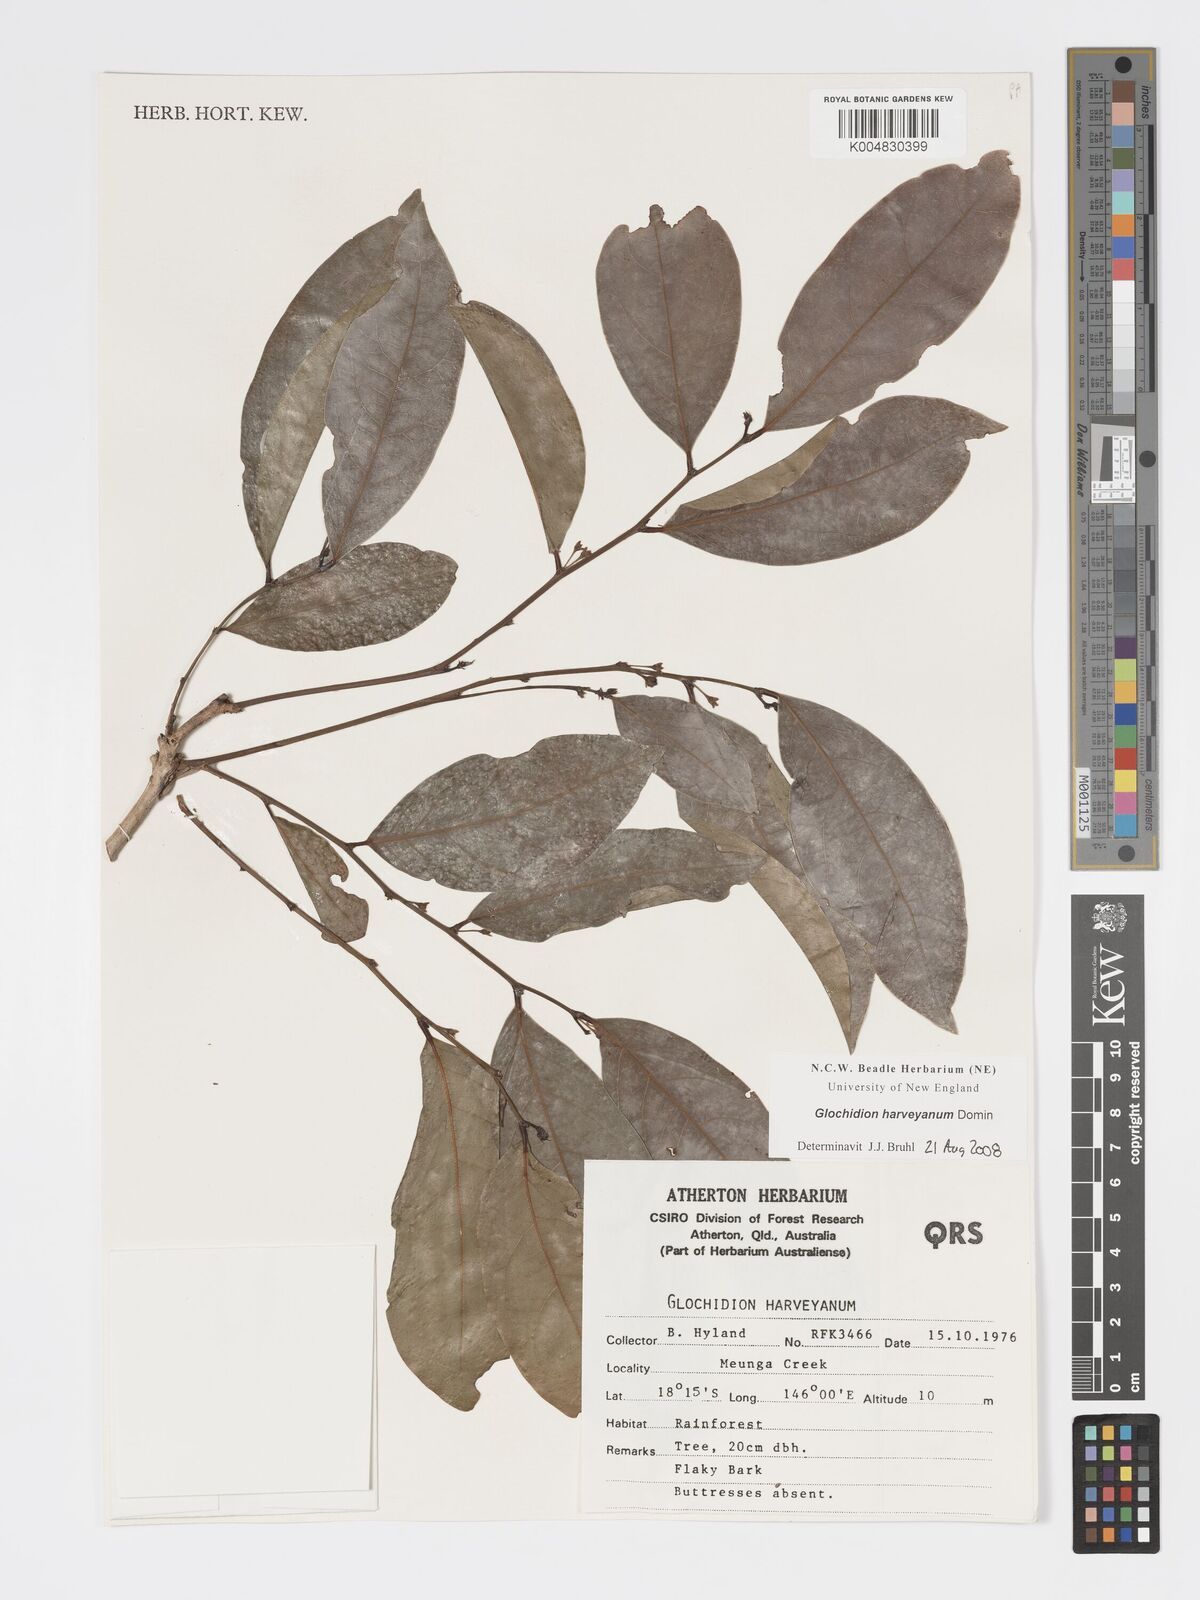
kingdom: Plantae
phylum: Tracheophyta
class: Magnoliopsida
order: Malpighiales
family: Phyllanthaceae
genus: Glochidion
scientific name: Glochidion harveyanum
